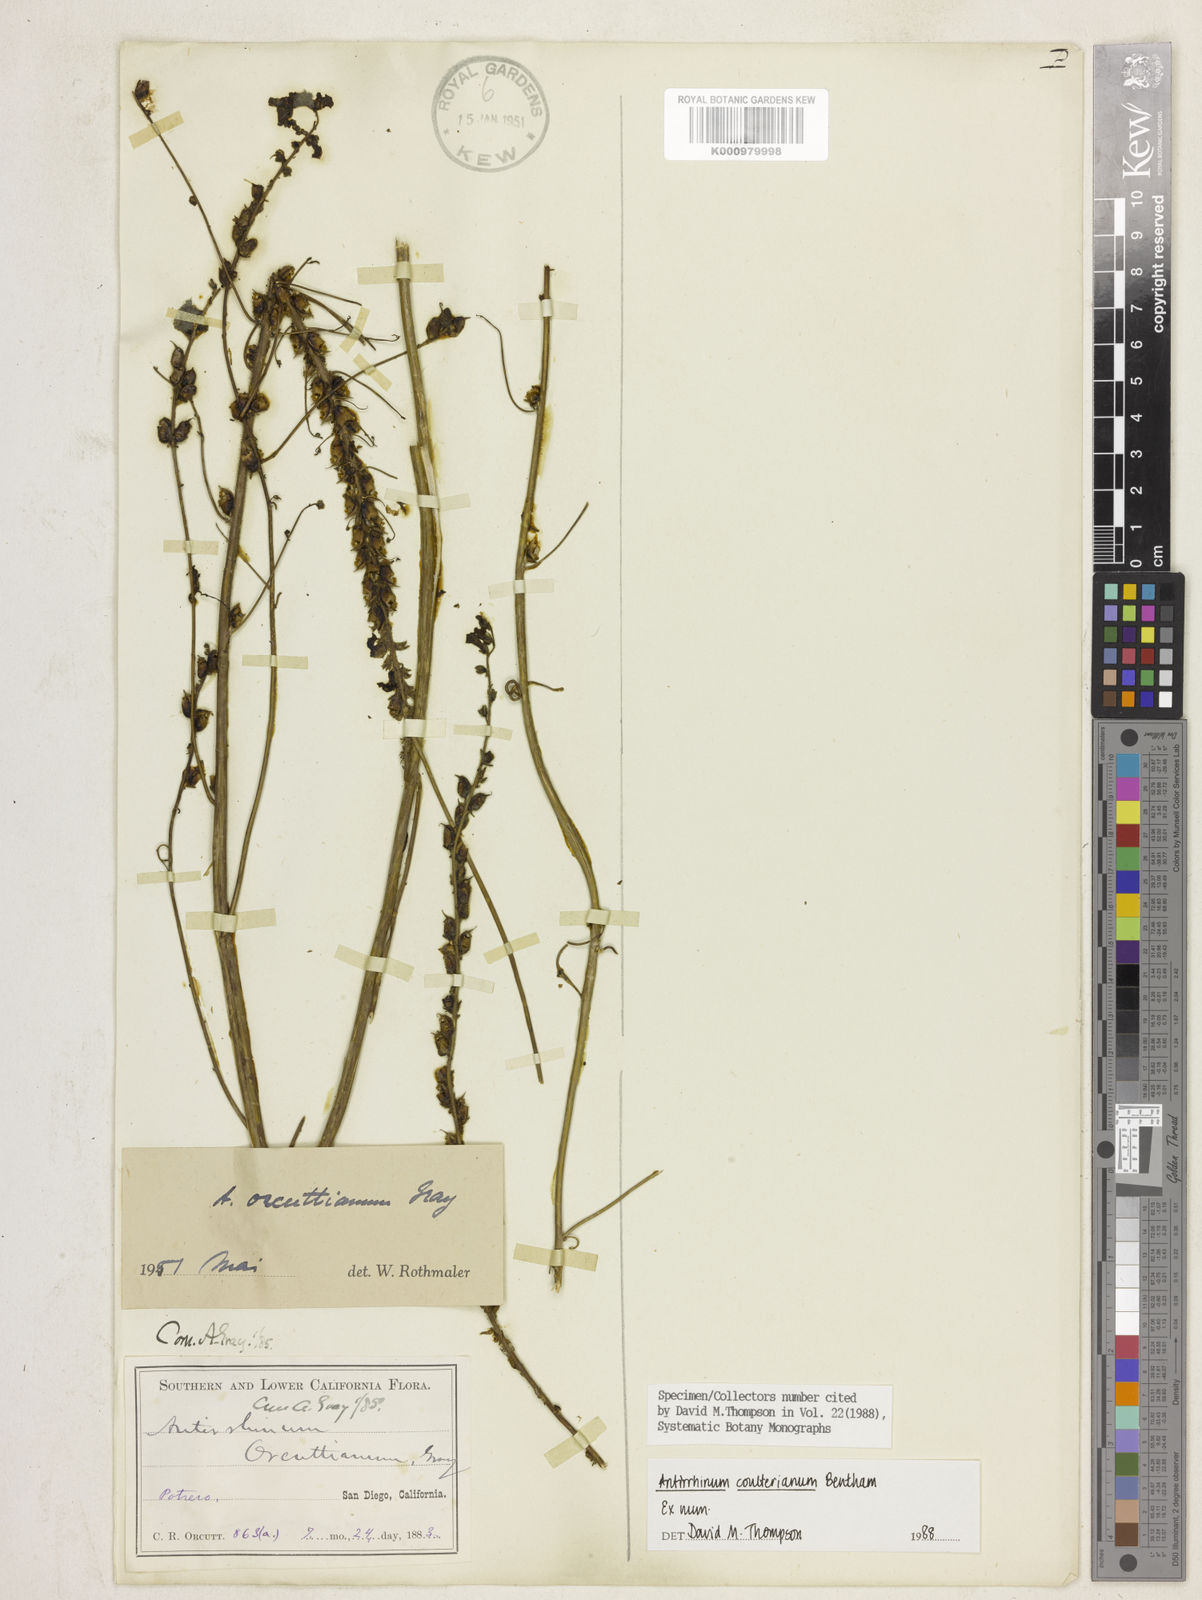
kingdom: Plantae
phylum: Tracheophyta
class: Magnoliopsida
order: Lamiales
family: Plantaginaceae
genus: Antirrhinum
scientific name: Antirrhinum
